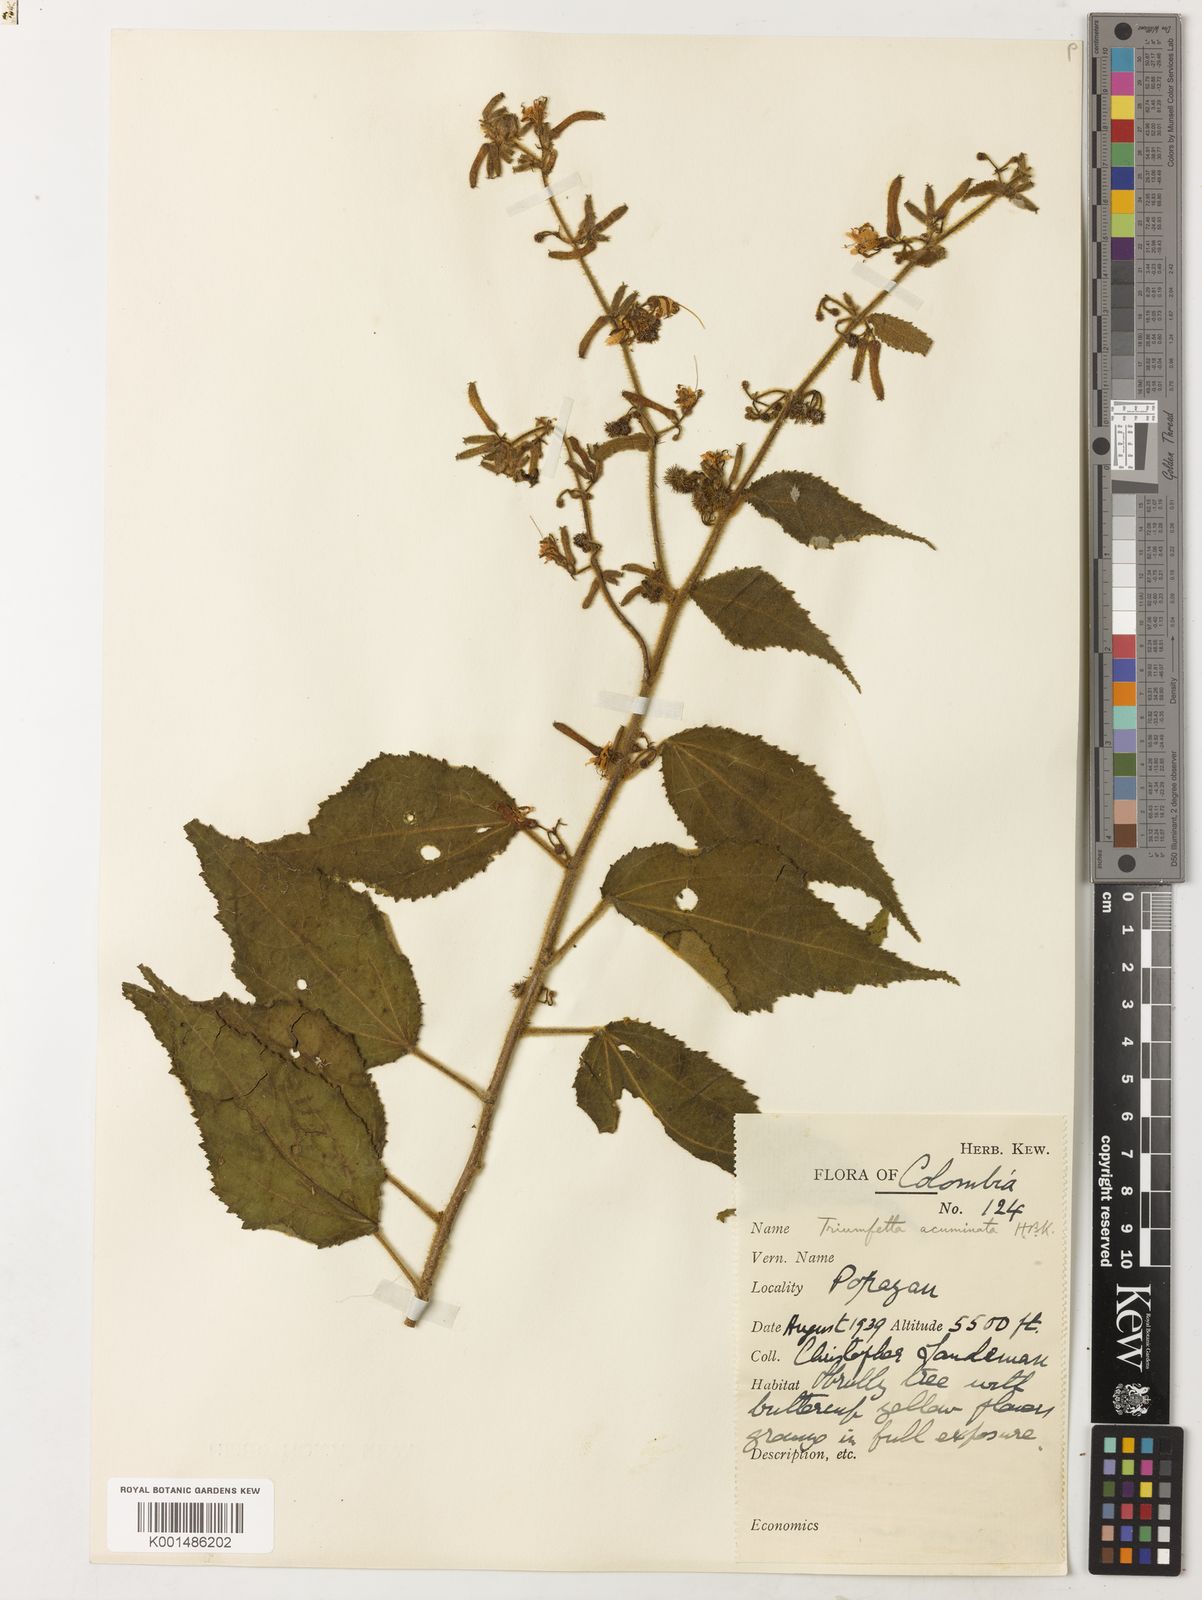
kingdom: Plantae
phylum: Tracheophyta
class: Magnoliopsida
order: Malvales
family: Malvaceae
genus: Triumfetta
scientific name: Triumfetta mollissima
